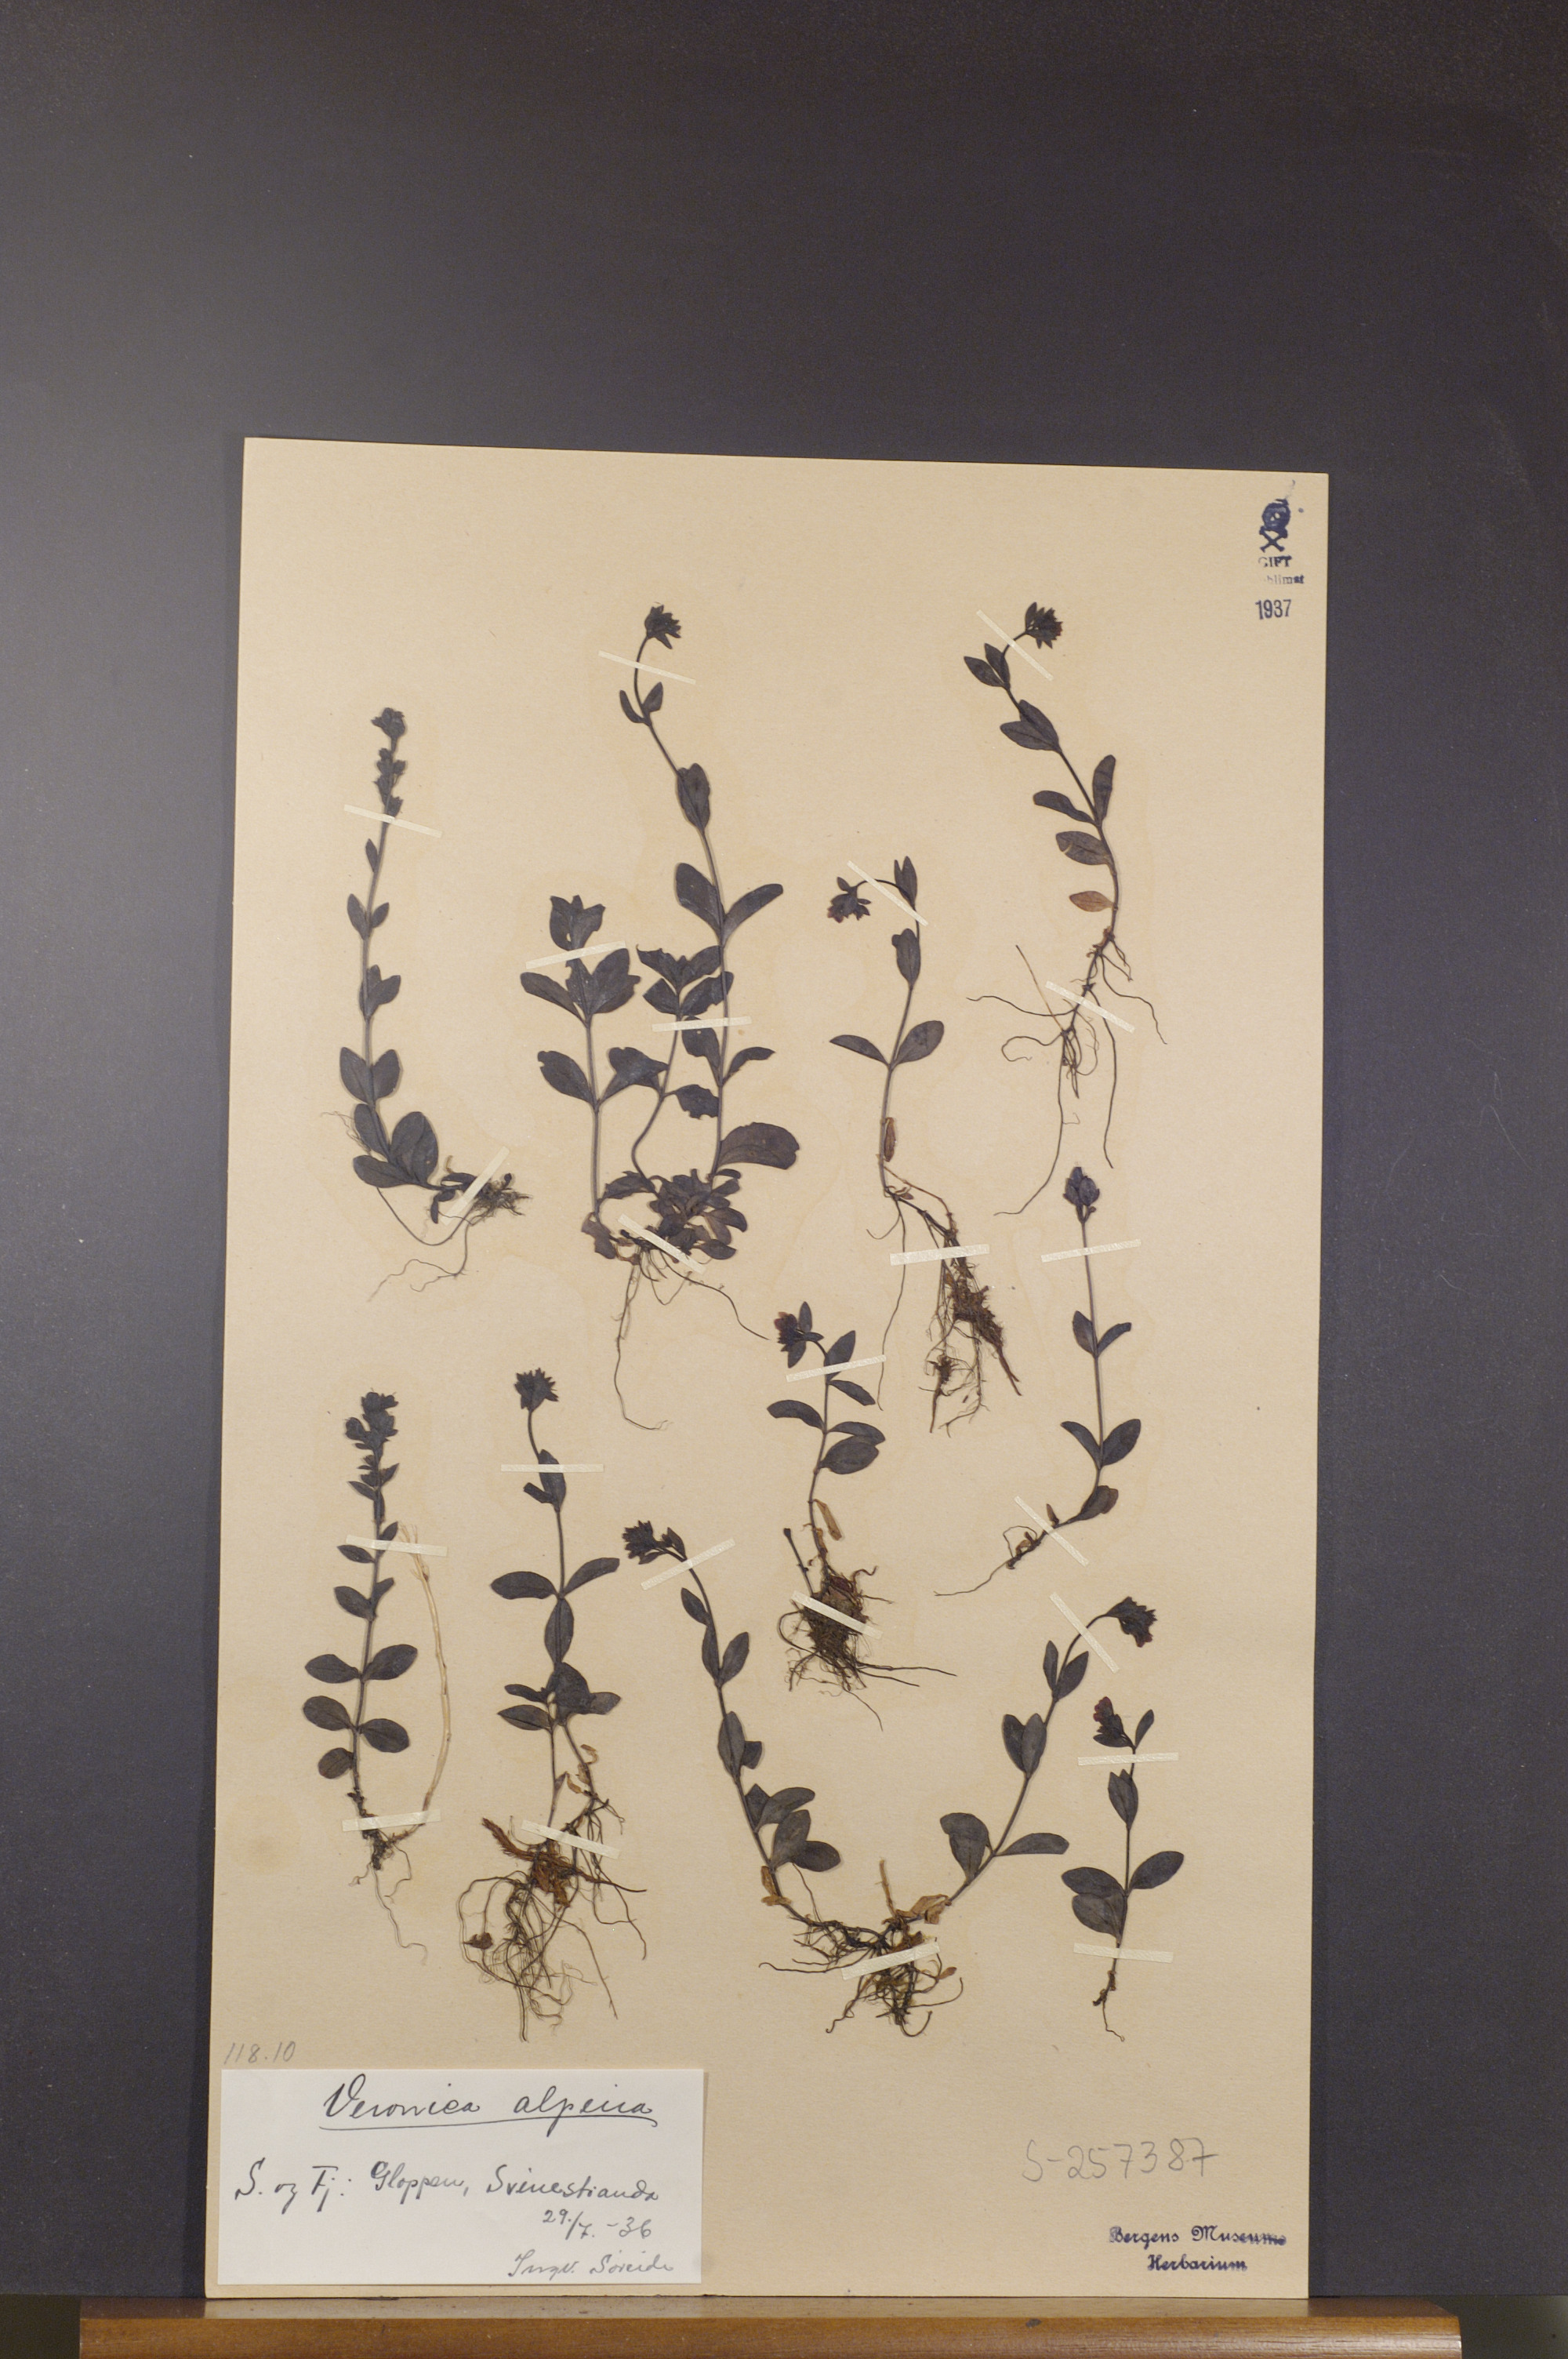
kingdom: Plantae
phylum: Tracheophyta
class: Magnoliopsida
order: Lamiales
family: Plantaginaceae
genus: Veronica
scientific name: Veronica alpina
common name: Alpine speedwell
